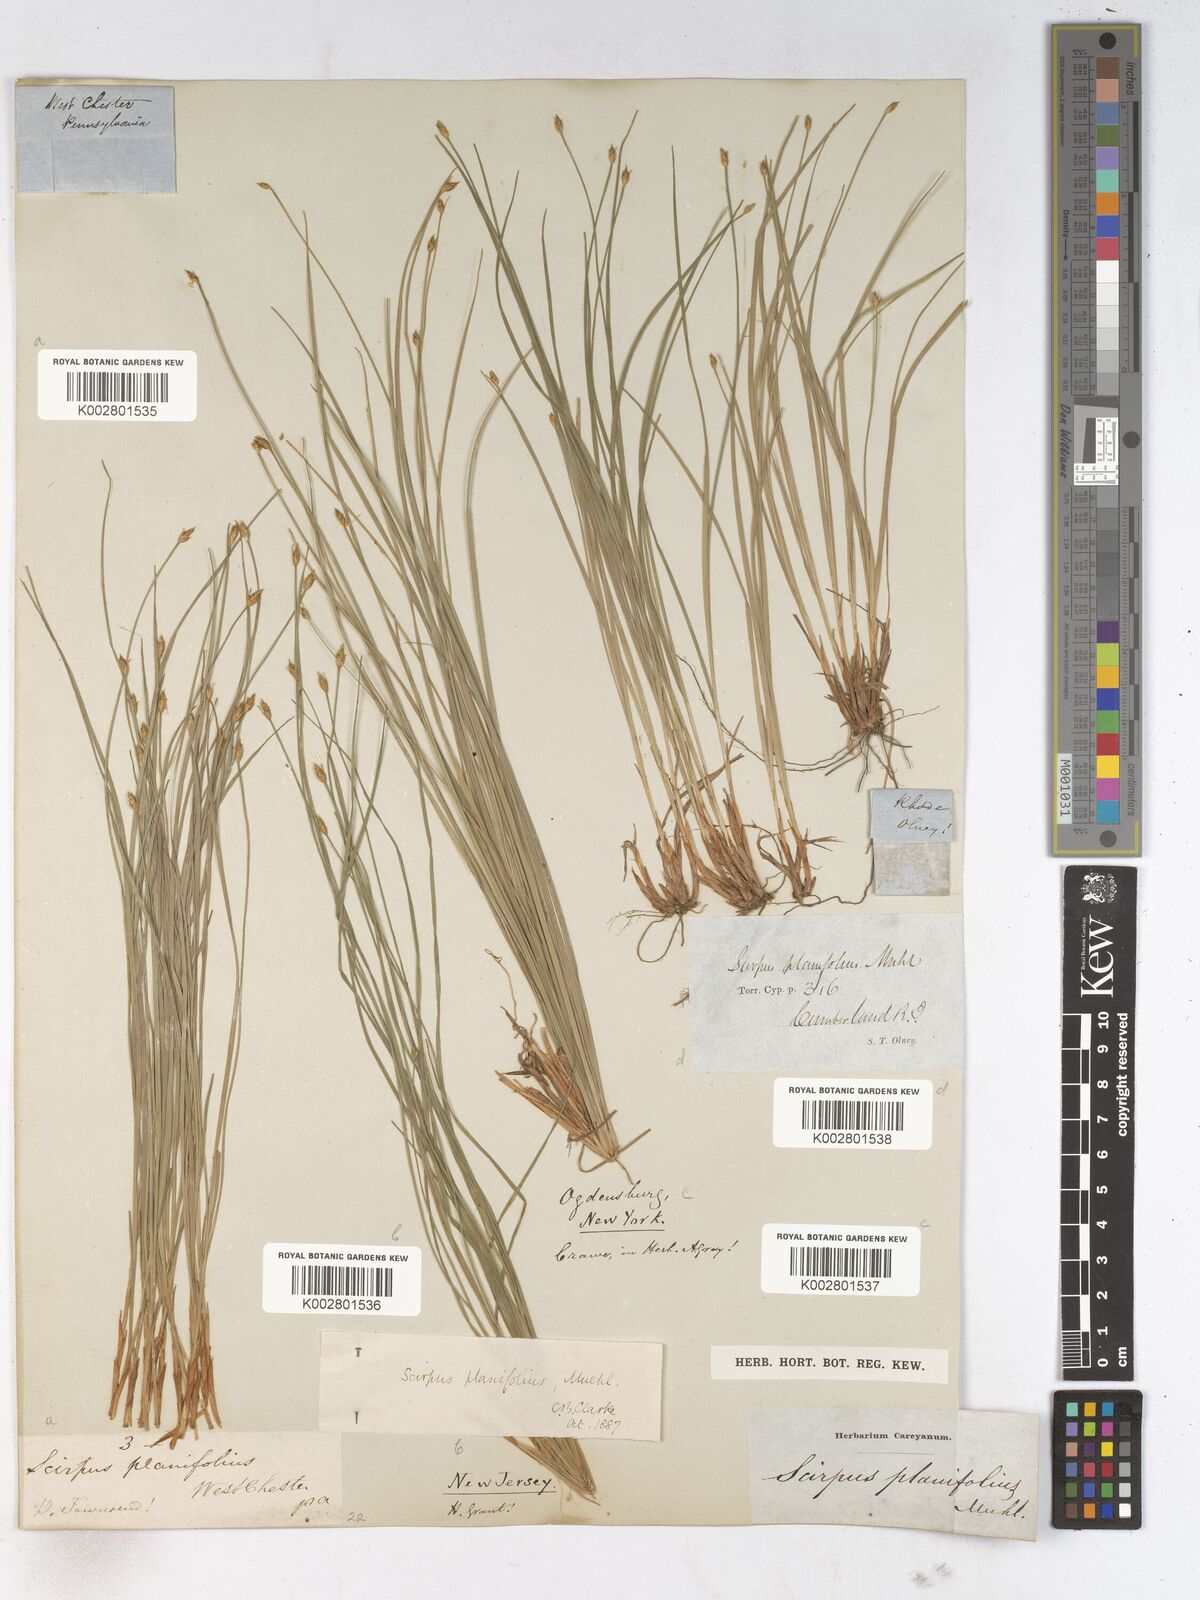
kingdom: Plantae
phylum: Tracheophyta
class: Liliopsida
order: Poales
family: Cyperaceae
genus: Trichophorum
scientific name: Trichophorum planifolium
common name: Bashful bulrush
